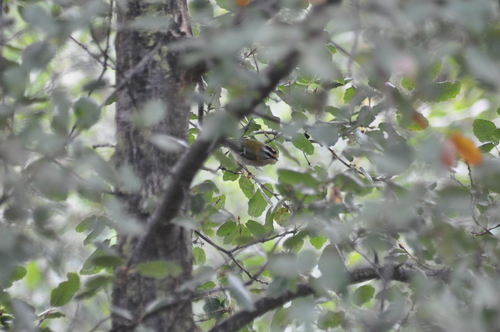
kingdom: Animalia
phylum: Chordata
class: Aves
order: Passeriformes
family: Regulidae
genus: Regulus
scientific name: Regulus ignicapilla
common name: Firecrest
